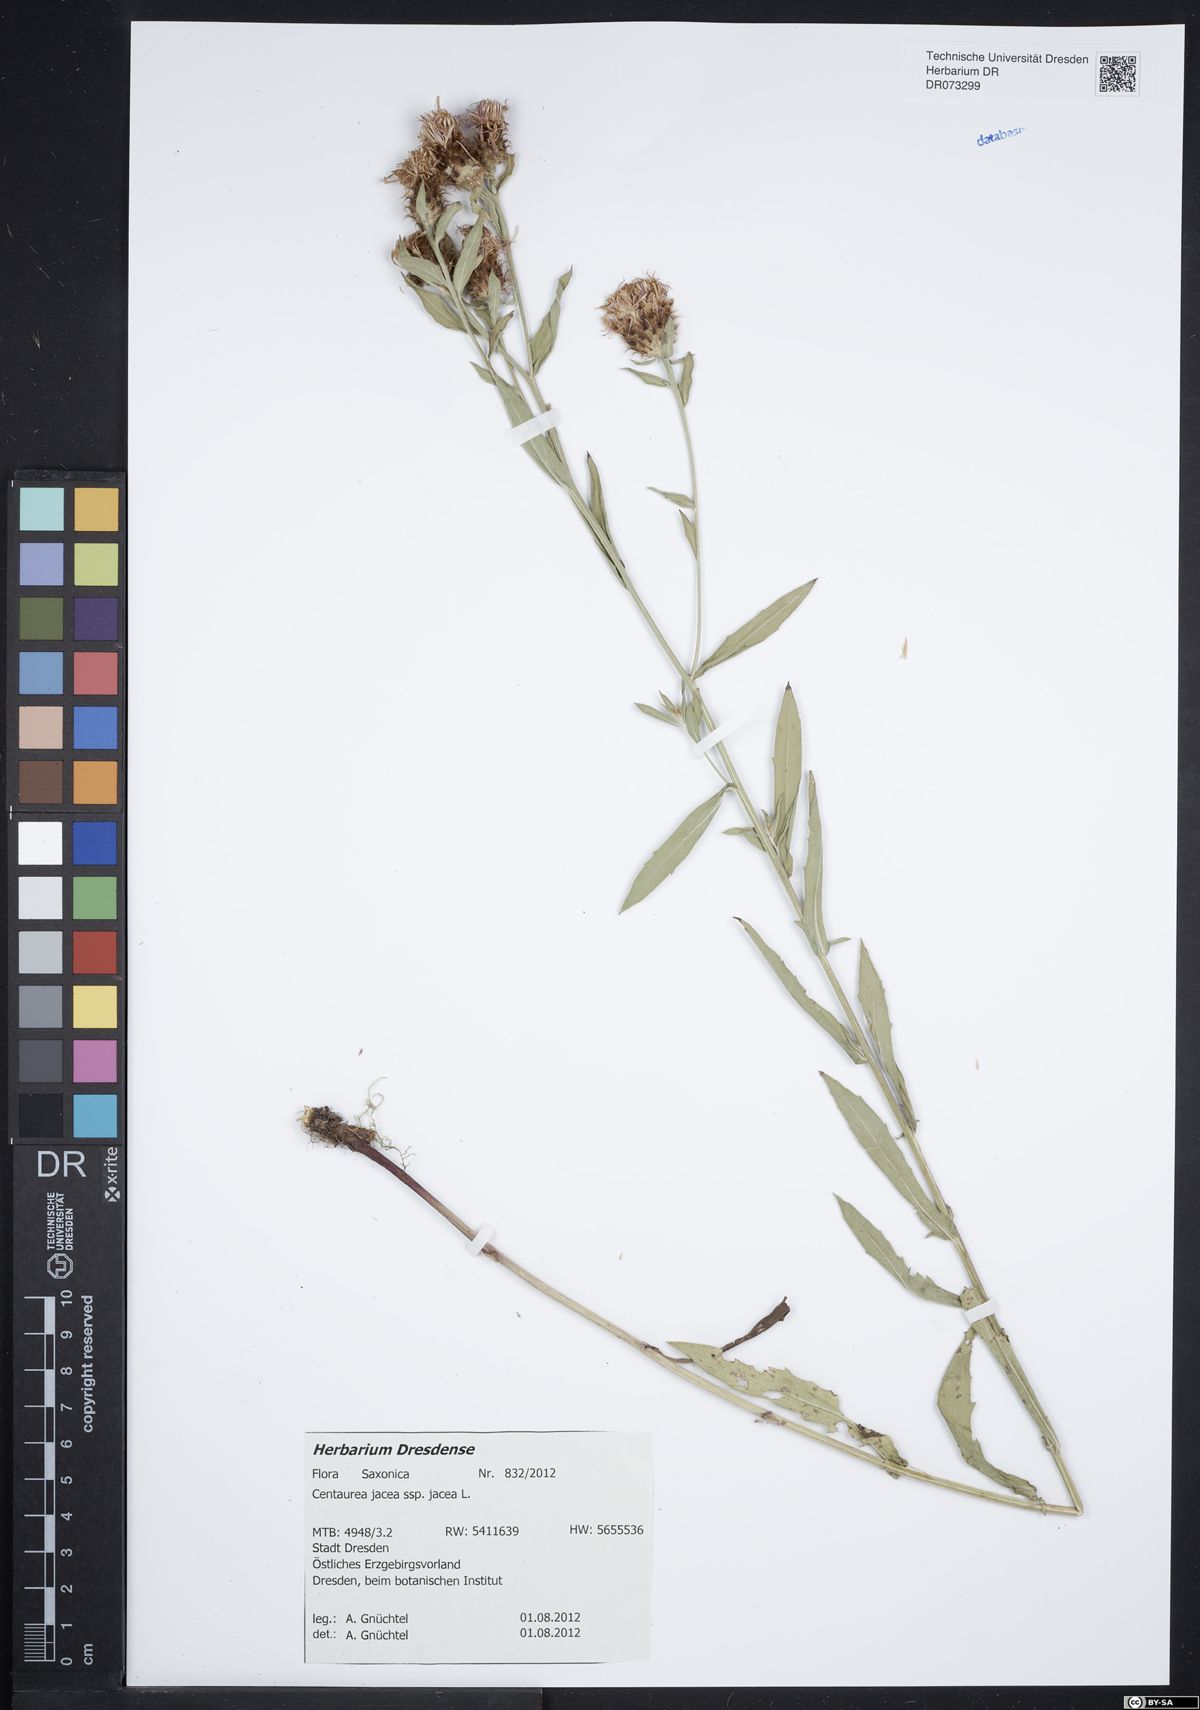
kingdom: Plantae
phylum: Tracheophyta
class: Magnoliopsida
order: Asterales
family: Asteraceae
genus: Centaurea
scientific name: Centaurea jacea
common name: Brown knapweed
